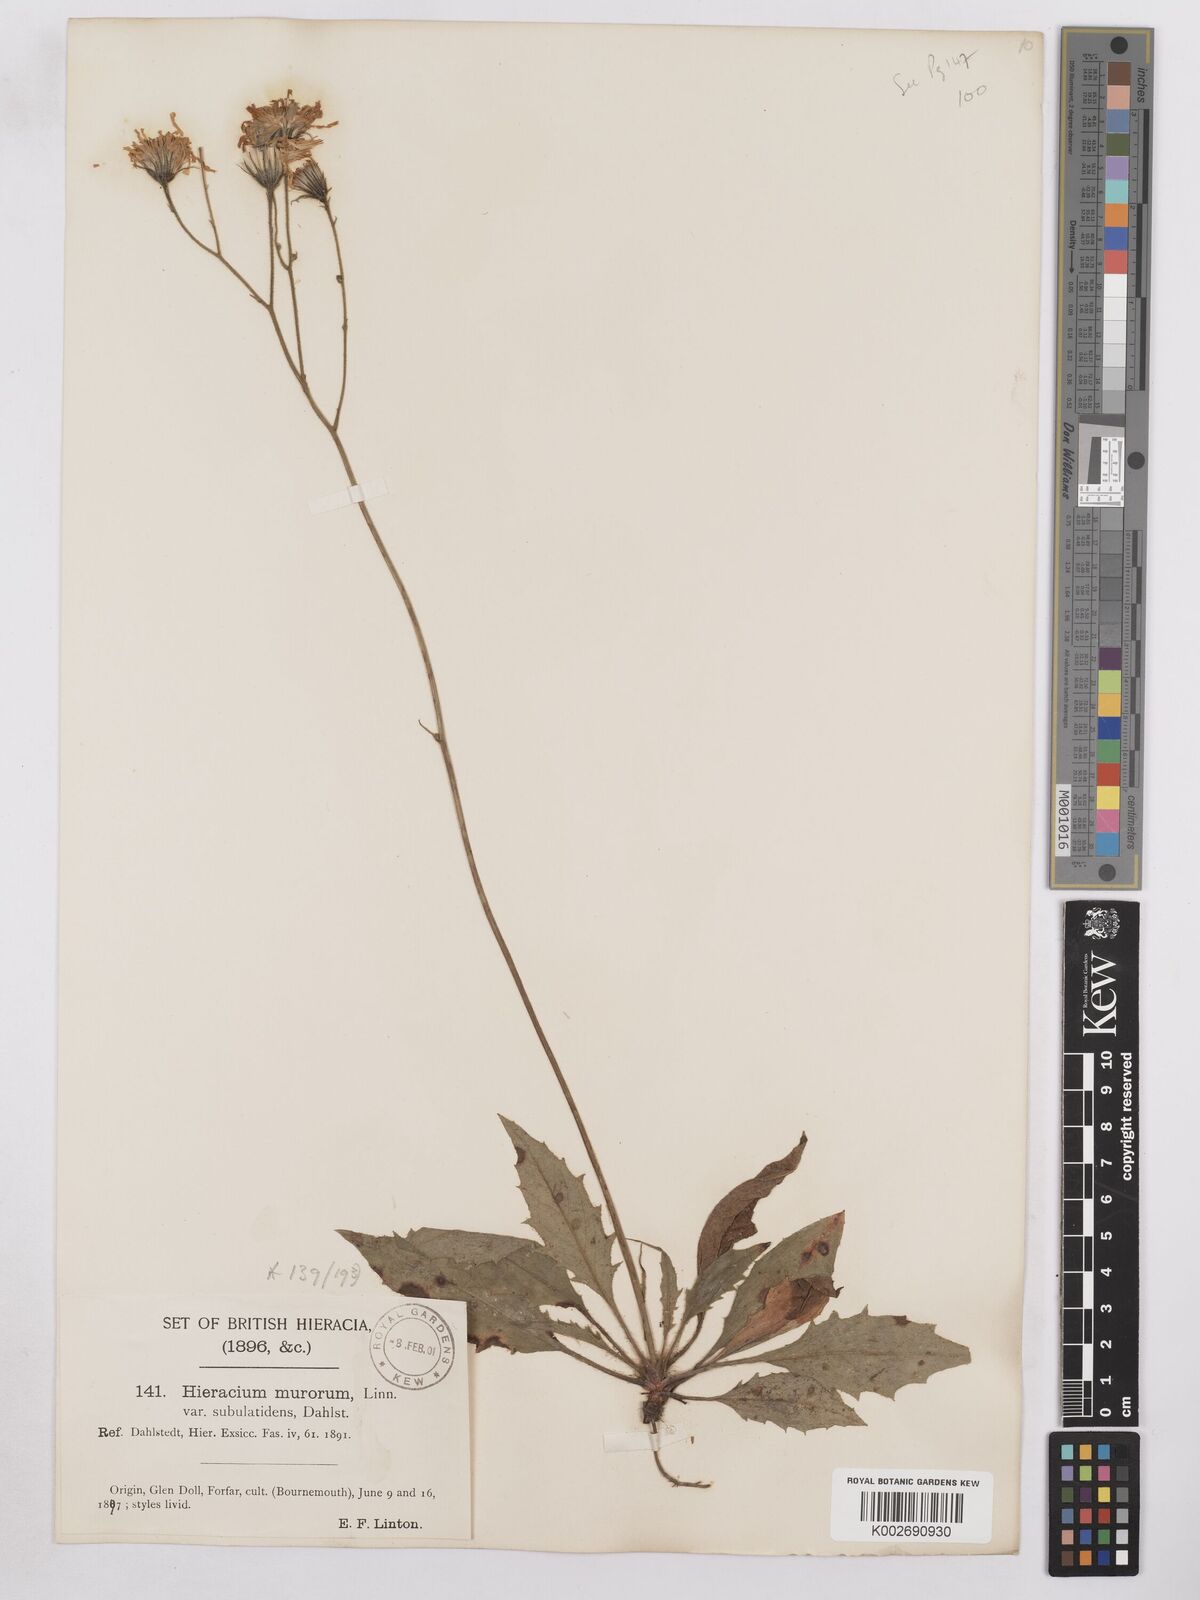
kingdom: Plantae
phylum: Tracheophyta
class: Magnoliopsida
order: Asterales
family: Asteraceae
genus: Hieracium
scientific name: Hieracium cuneifrons
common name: Wedge-leaved hawkweed
